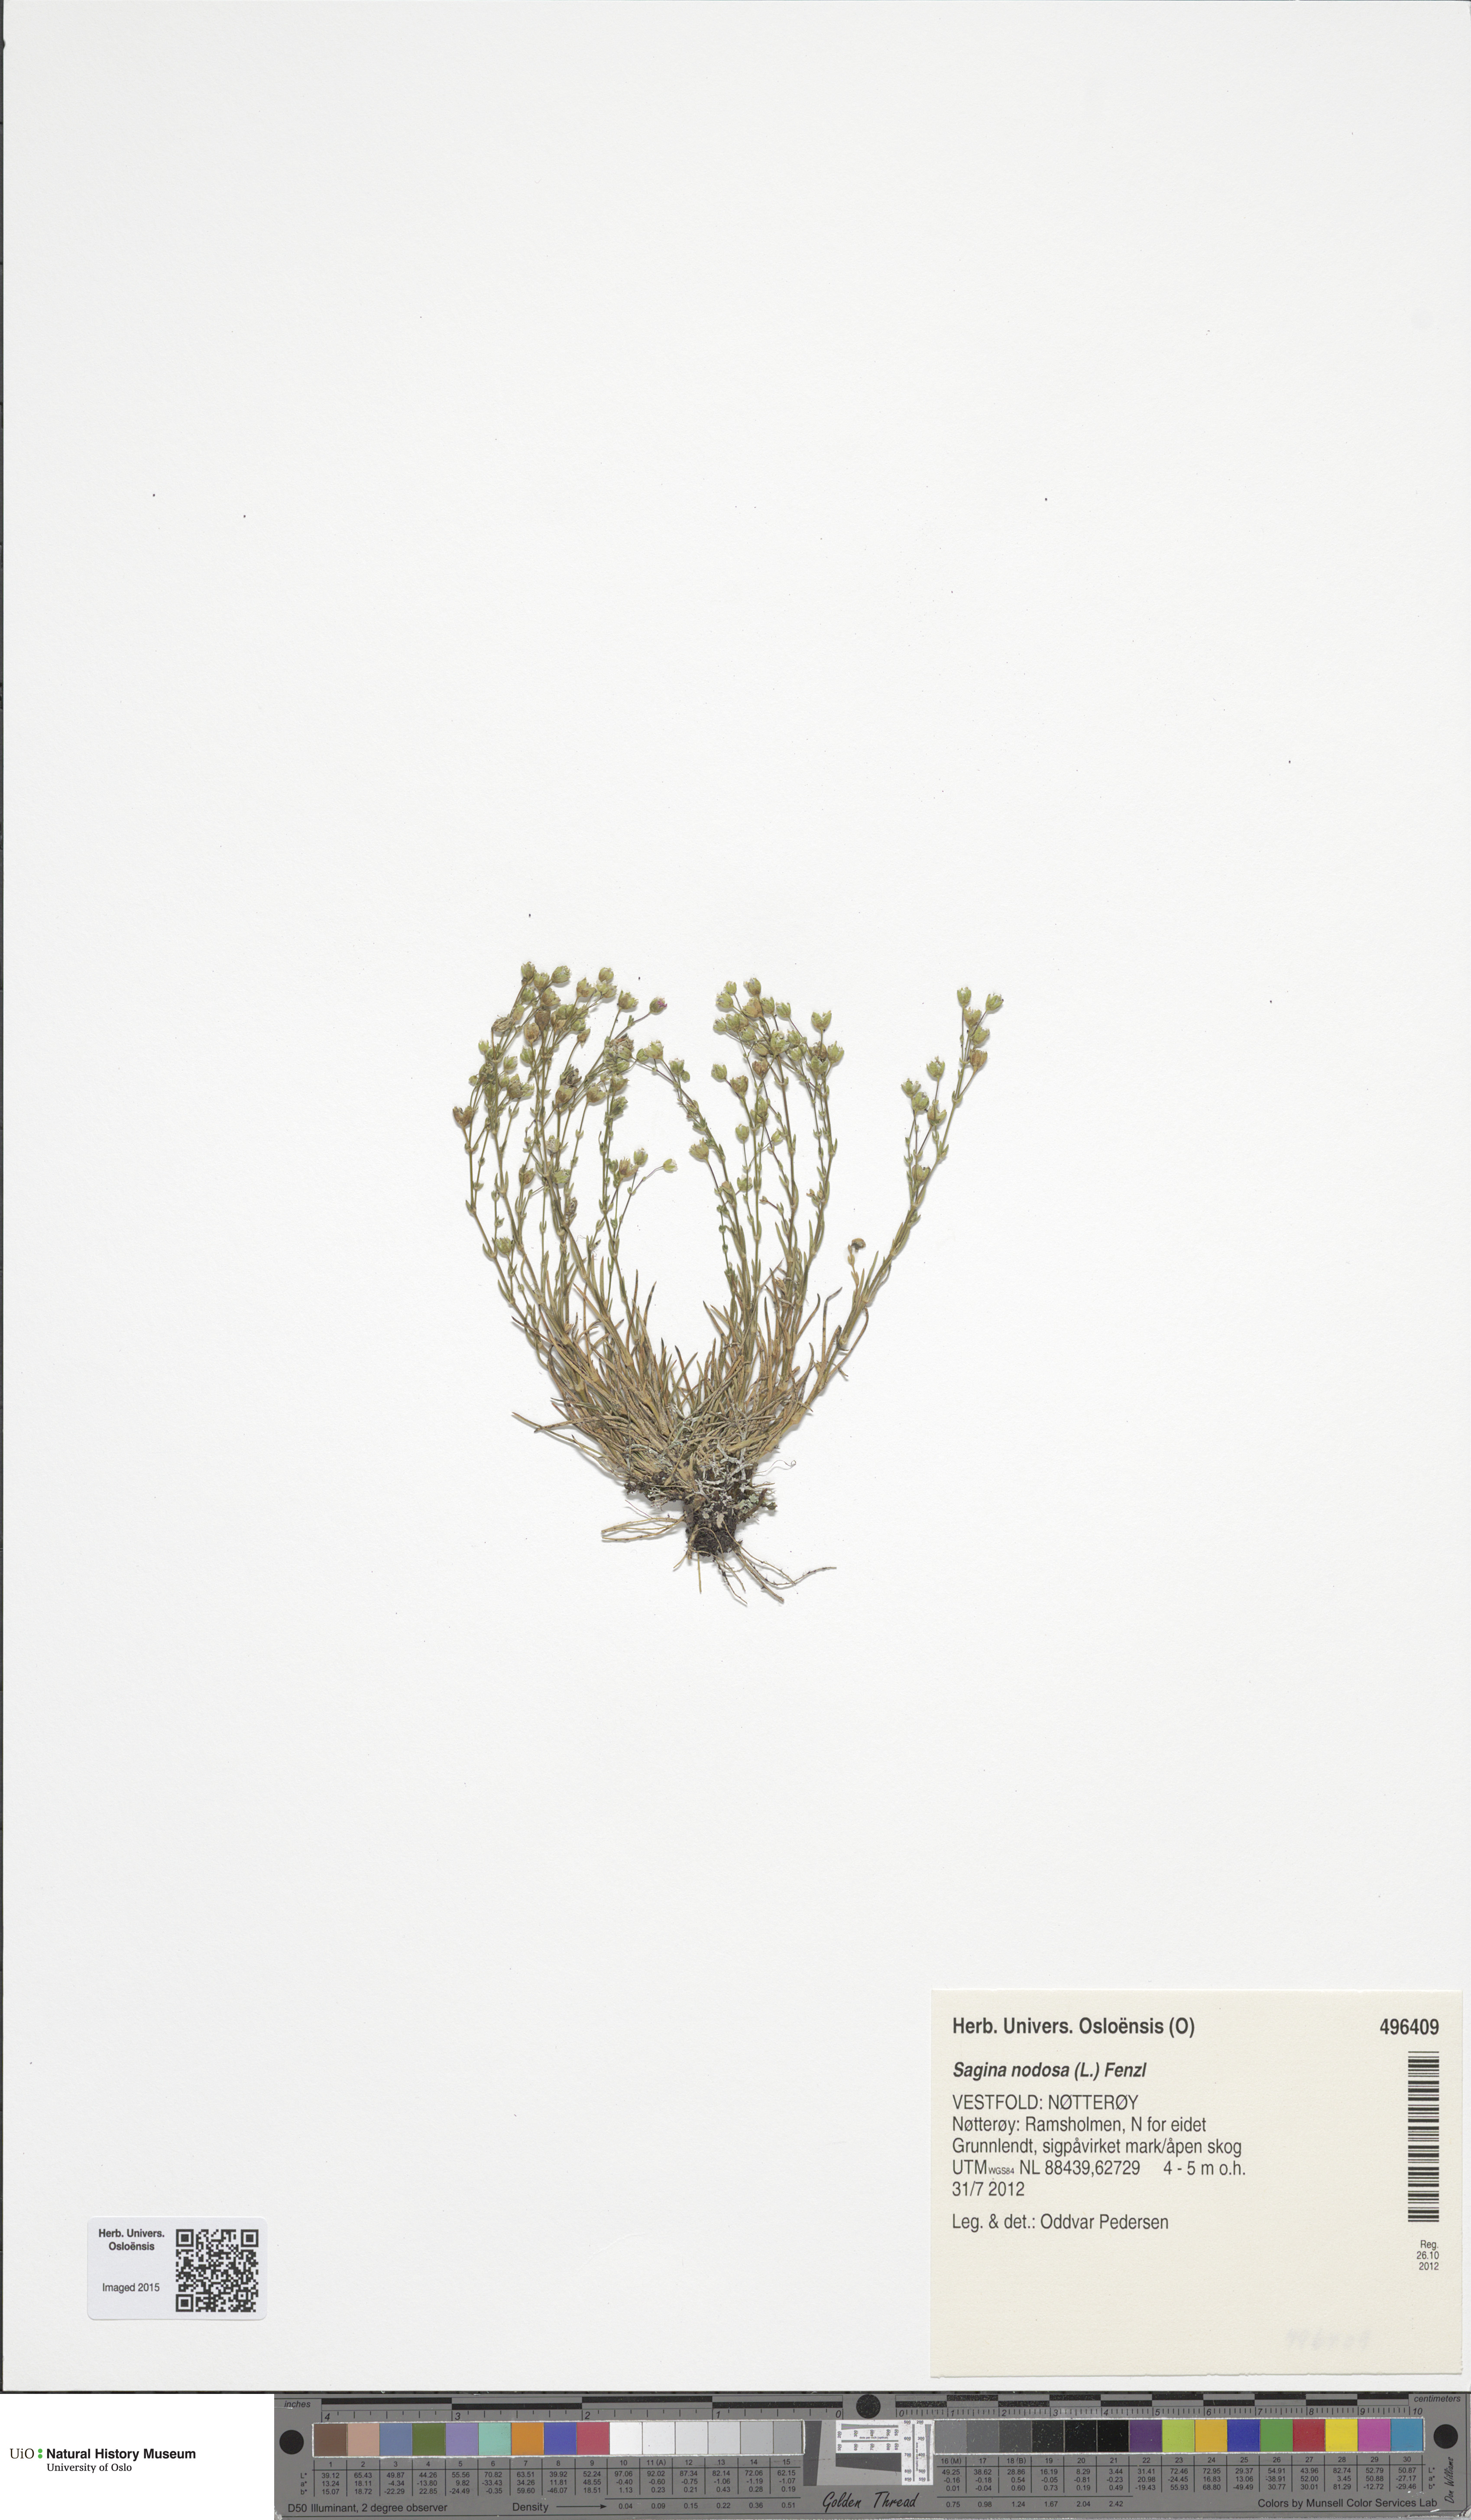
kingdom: Plantae
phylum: Tracheophyta
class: Magnoliopsida
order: Caryophyllales
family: Caryophyllaceae
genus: Sagina
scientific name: Sagina nodosa
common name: Knotted pearlwort
